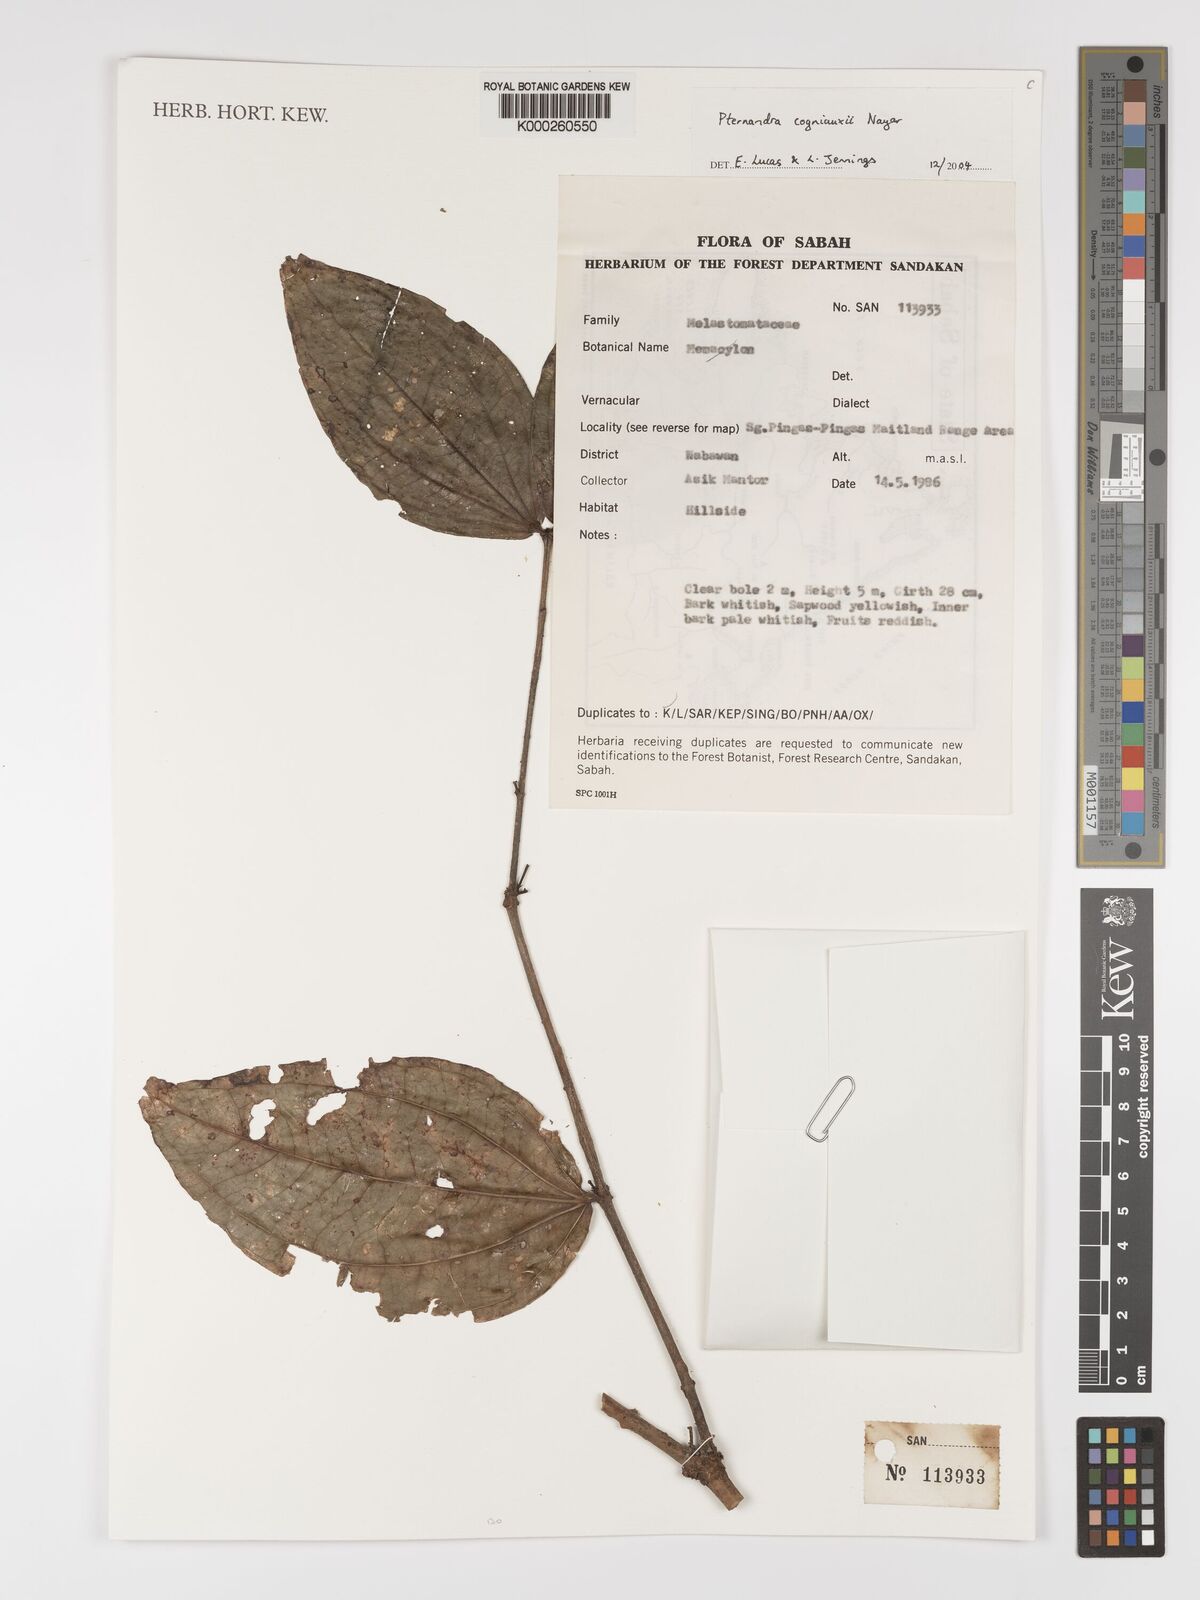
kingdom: Plantae
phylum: Tracheophyta
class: Magnoliopsida
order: Myrtales
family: Melastomataceae
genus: Pternandra
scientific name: Pternandra cogniauxii
